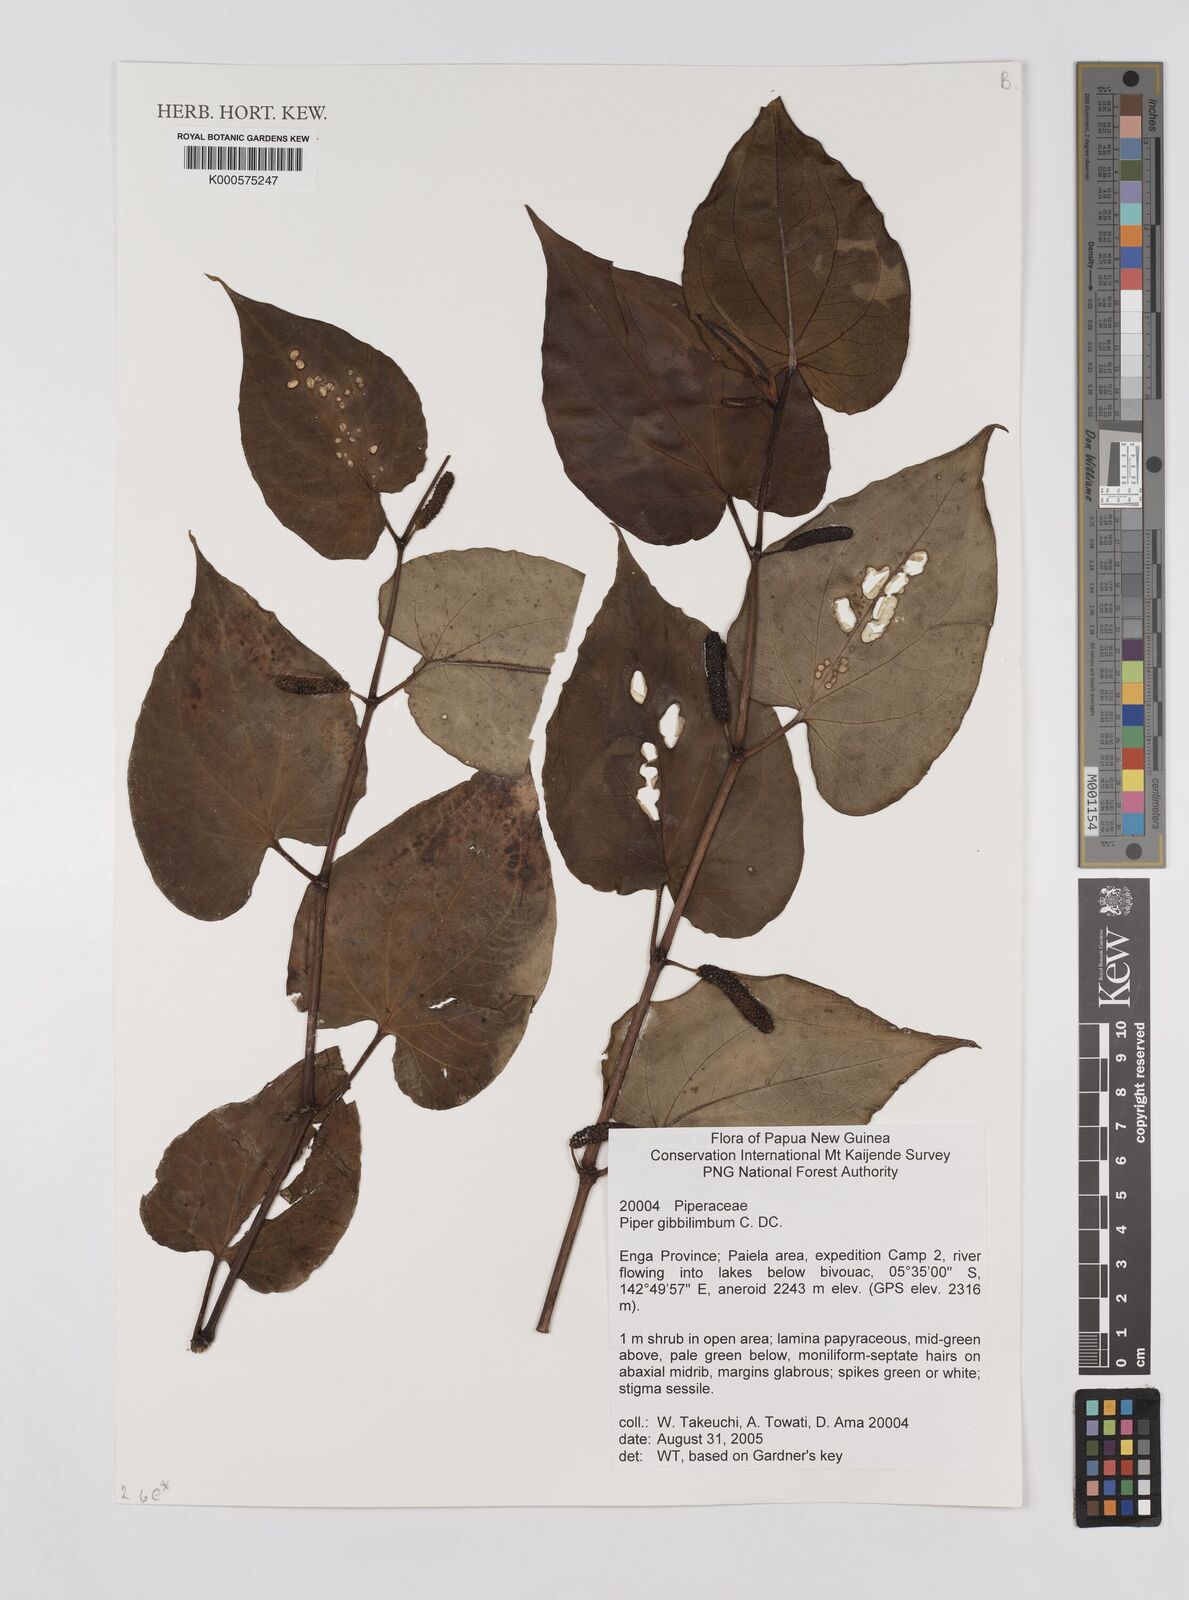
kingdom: Plantae
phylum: Tracheophyta
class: Magnoliopsida
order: Piperales
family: Piperaceae
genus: Piper
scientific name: Piper gibbilimbum
